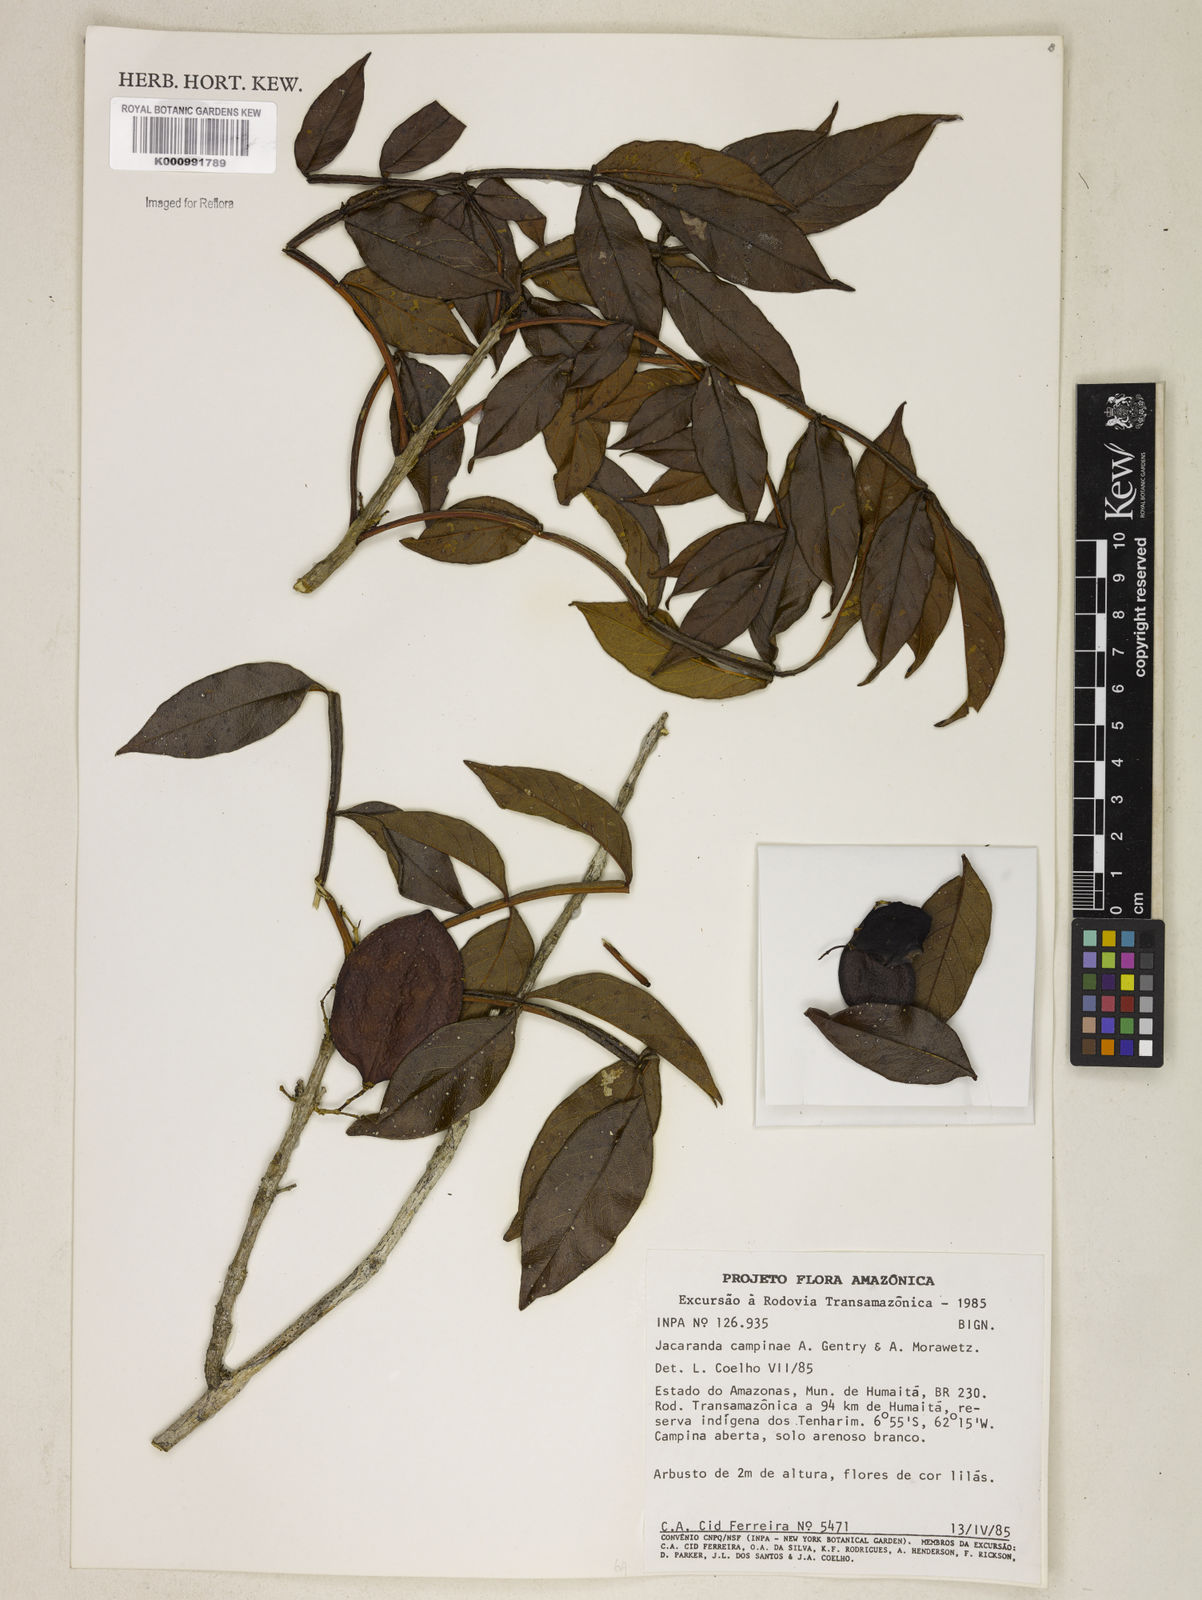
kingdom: Plantae
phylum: Tracheophyta
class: Magnoliopsida
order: Lamiales
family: Bignoniaceae
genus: Jacaranda
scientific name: Jacaranda campinae
